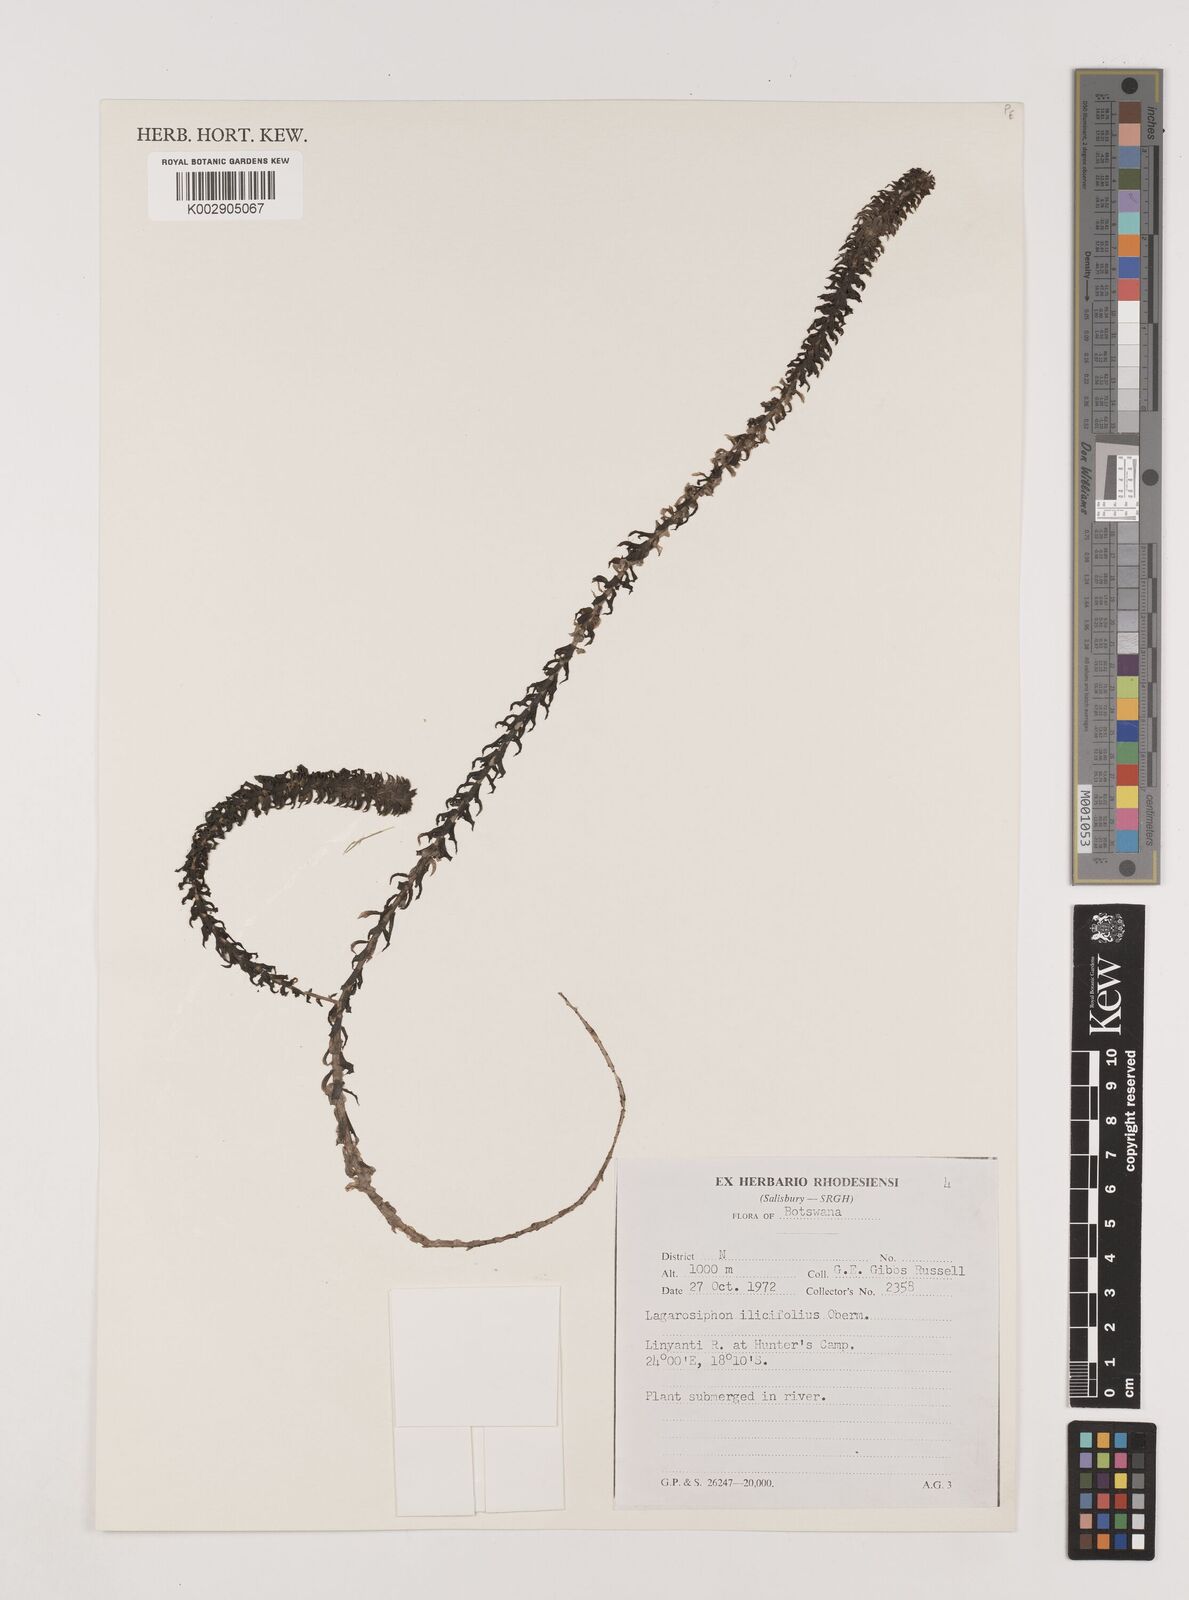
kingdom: Plantae
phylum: Tracheophyta
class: Liliopsida
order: Alismatales
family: Hydrocharitaceae
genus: Lagarosiphon
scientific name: Lagarosiphon ilicifolius
